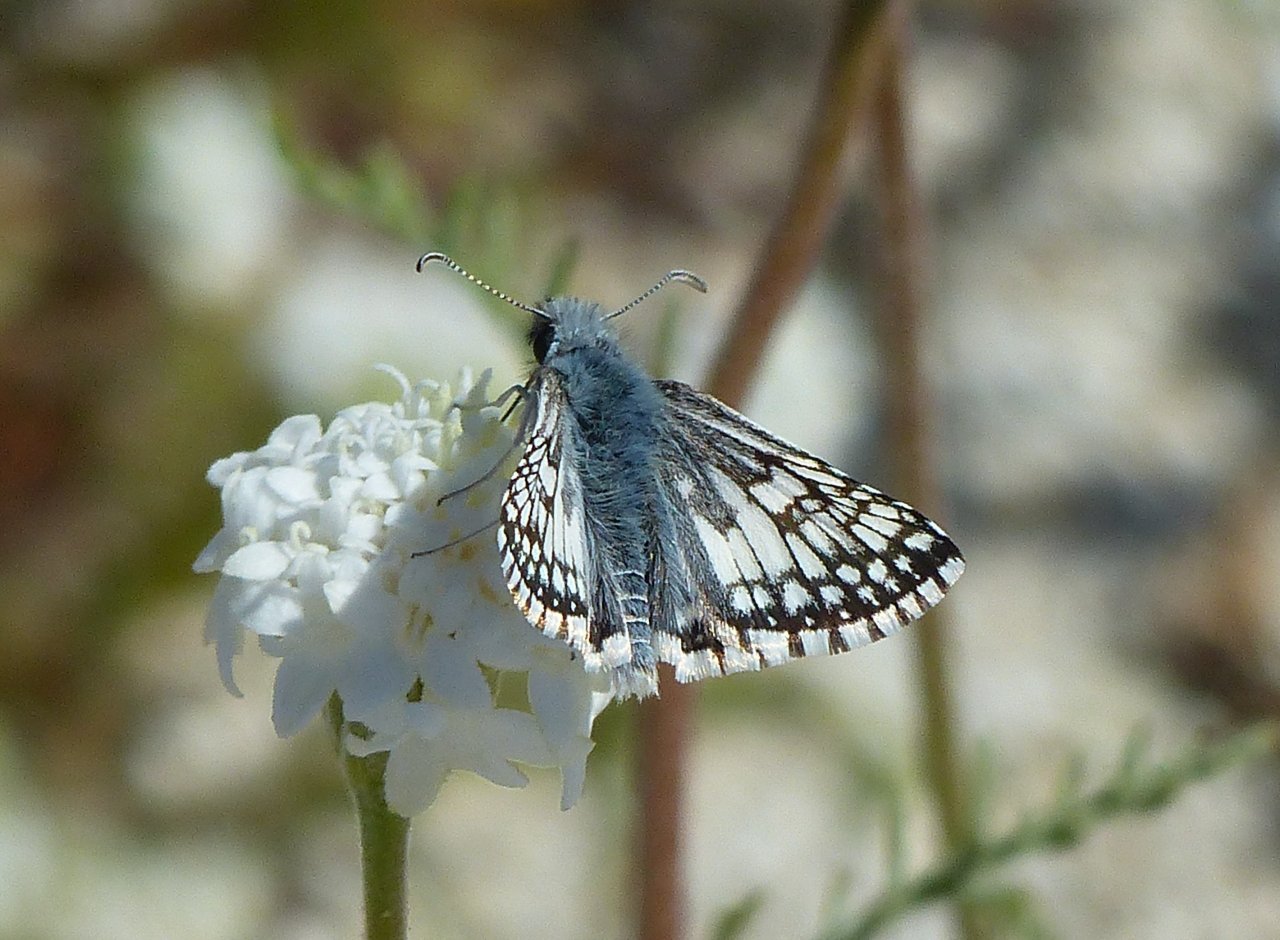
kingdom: Animalia
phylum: Arthropoda
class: Insecta
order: Lepidoptera
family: Hesperiidae
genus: Pyrgus
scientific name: Pyrgus communis
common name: White Checkered-Skipper
